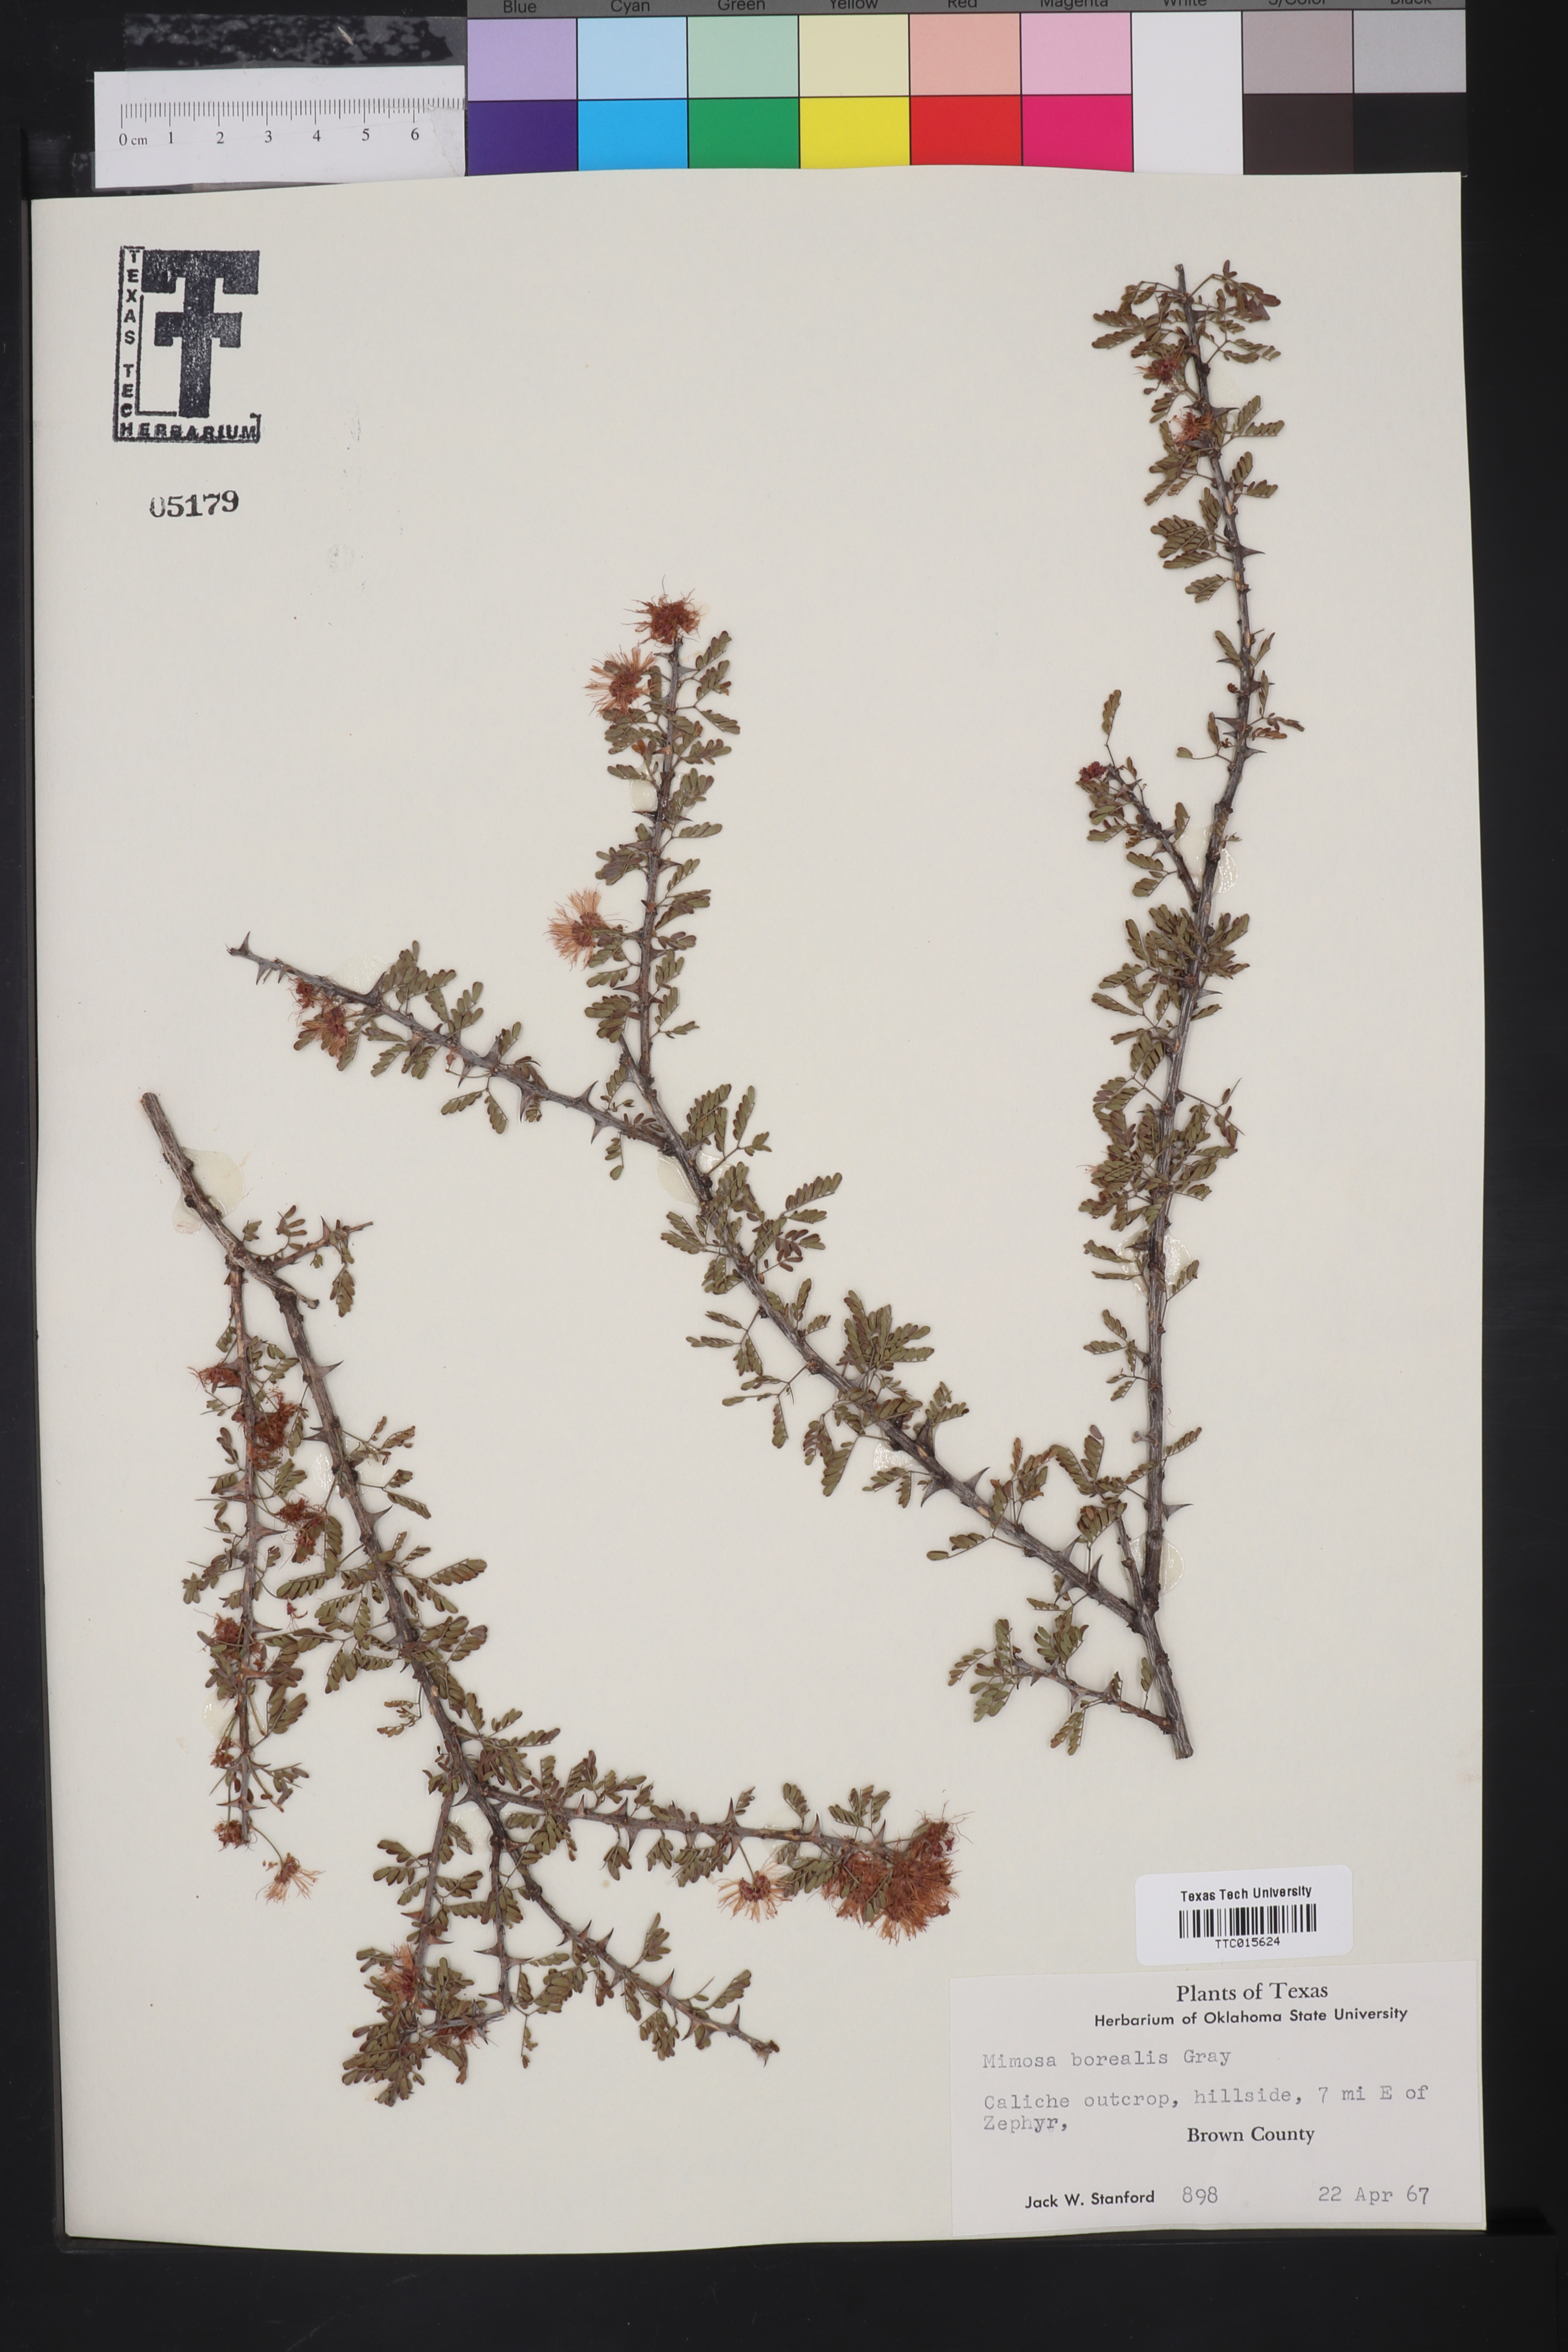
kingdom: Plantae
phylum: Tracheophyta
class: Magnoliopsida
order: Fabales
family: Fabaceae
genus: Mimosa
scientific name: Mimosa borealis
